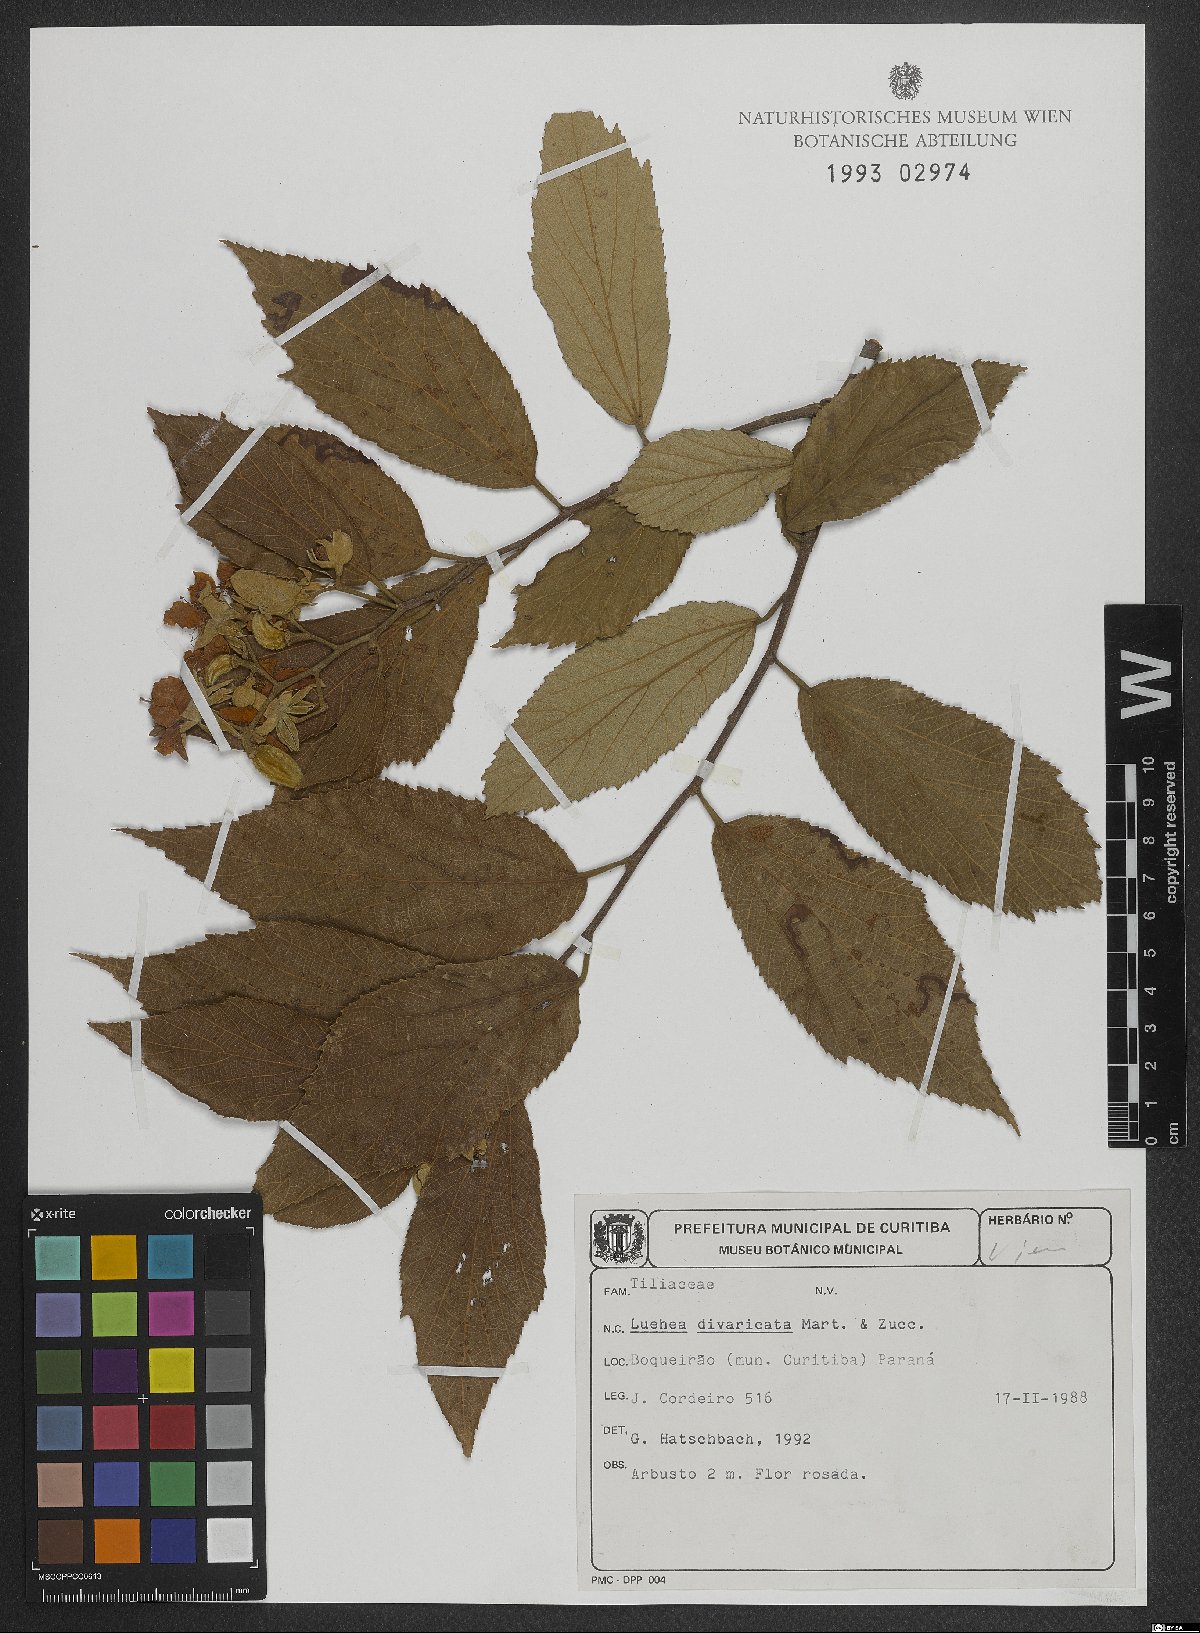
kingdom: Plantae
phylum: Tracheophyta
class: Magnoliopsida
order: Malvales
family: Malvaceae
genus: Luehea
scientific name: Luehea divaricata
